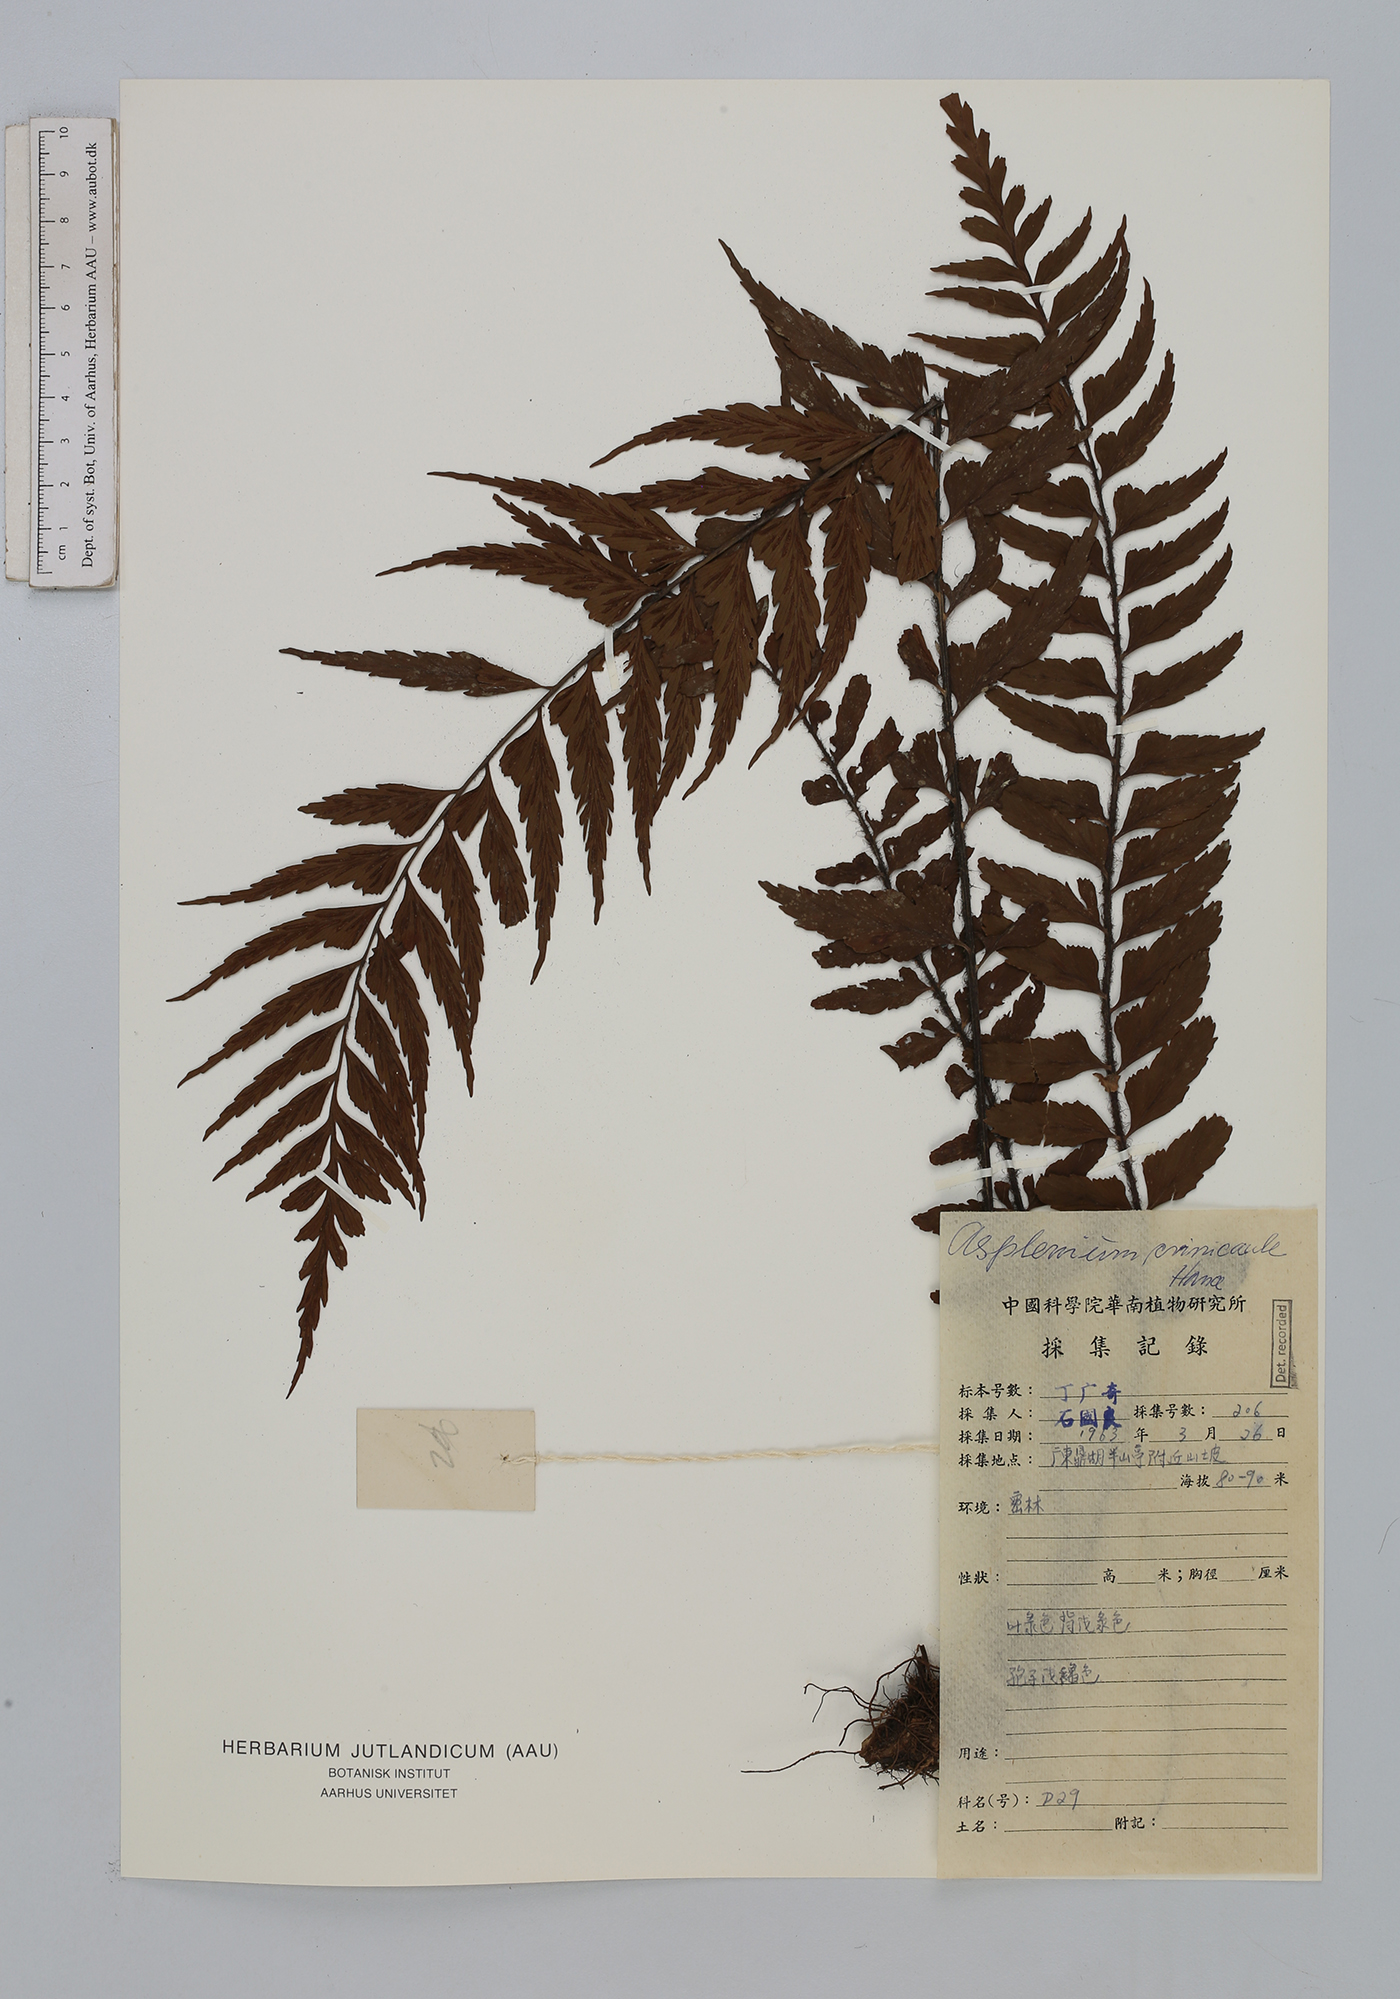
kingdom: Plantae
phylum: Tracheophyta
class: Polypodiopsida
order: Polypodiales
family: Aspleniaceae
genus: Asplenium
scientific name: Asplenium crinicaule
